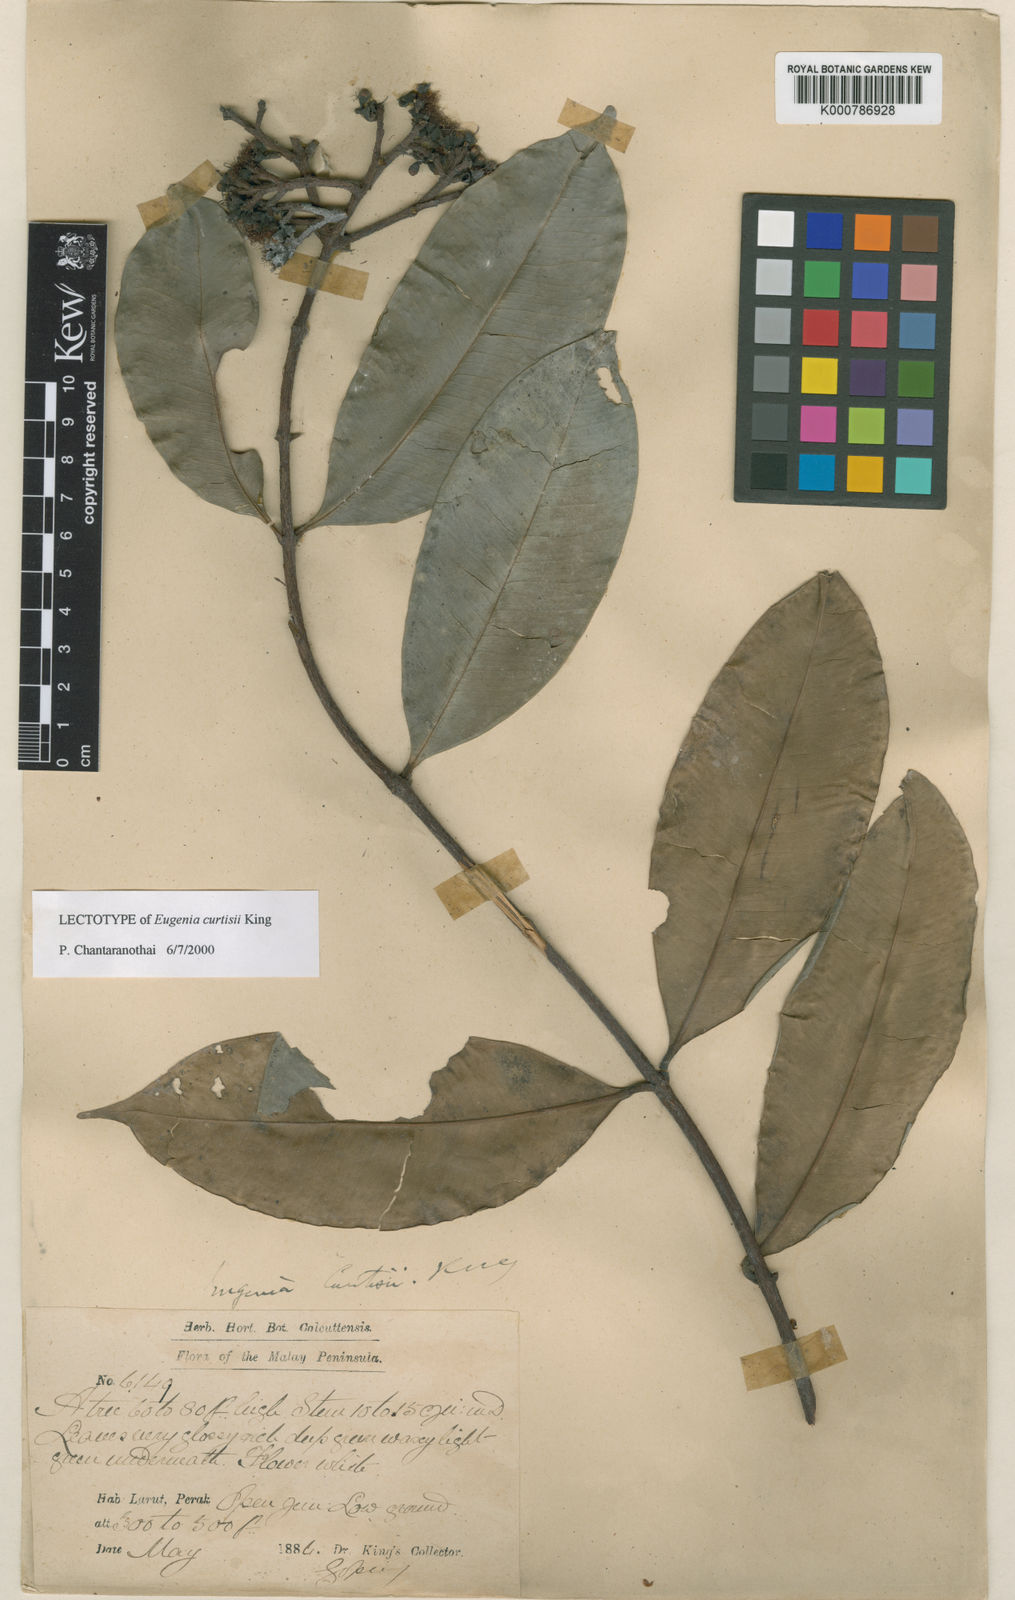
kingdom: Plantae
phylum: Tracheophyta
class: Magnoliopsida
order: Myrtales
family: Myrtaceae
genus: Syzygium
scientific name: Syzygium curtiflorum
